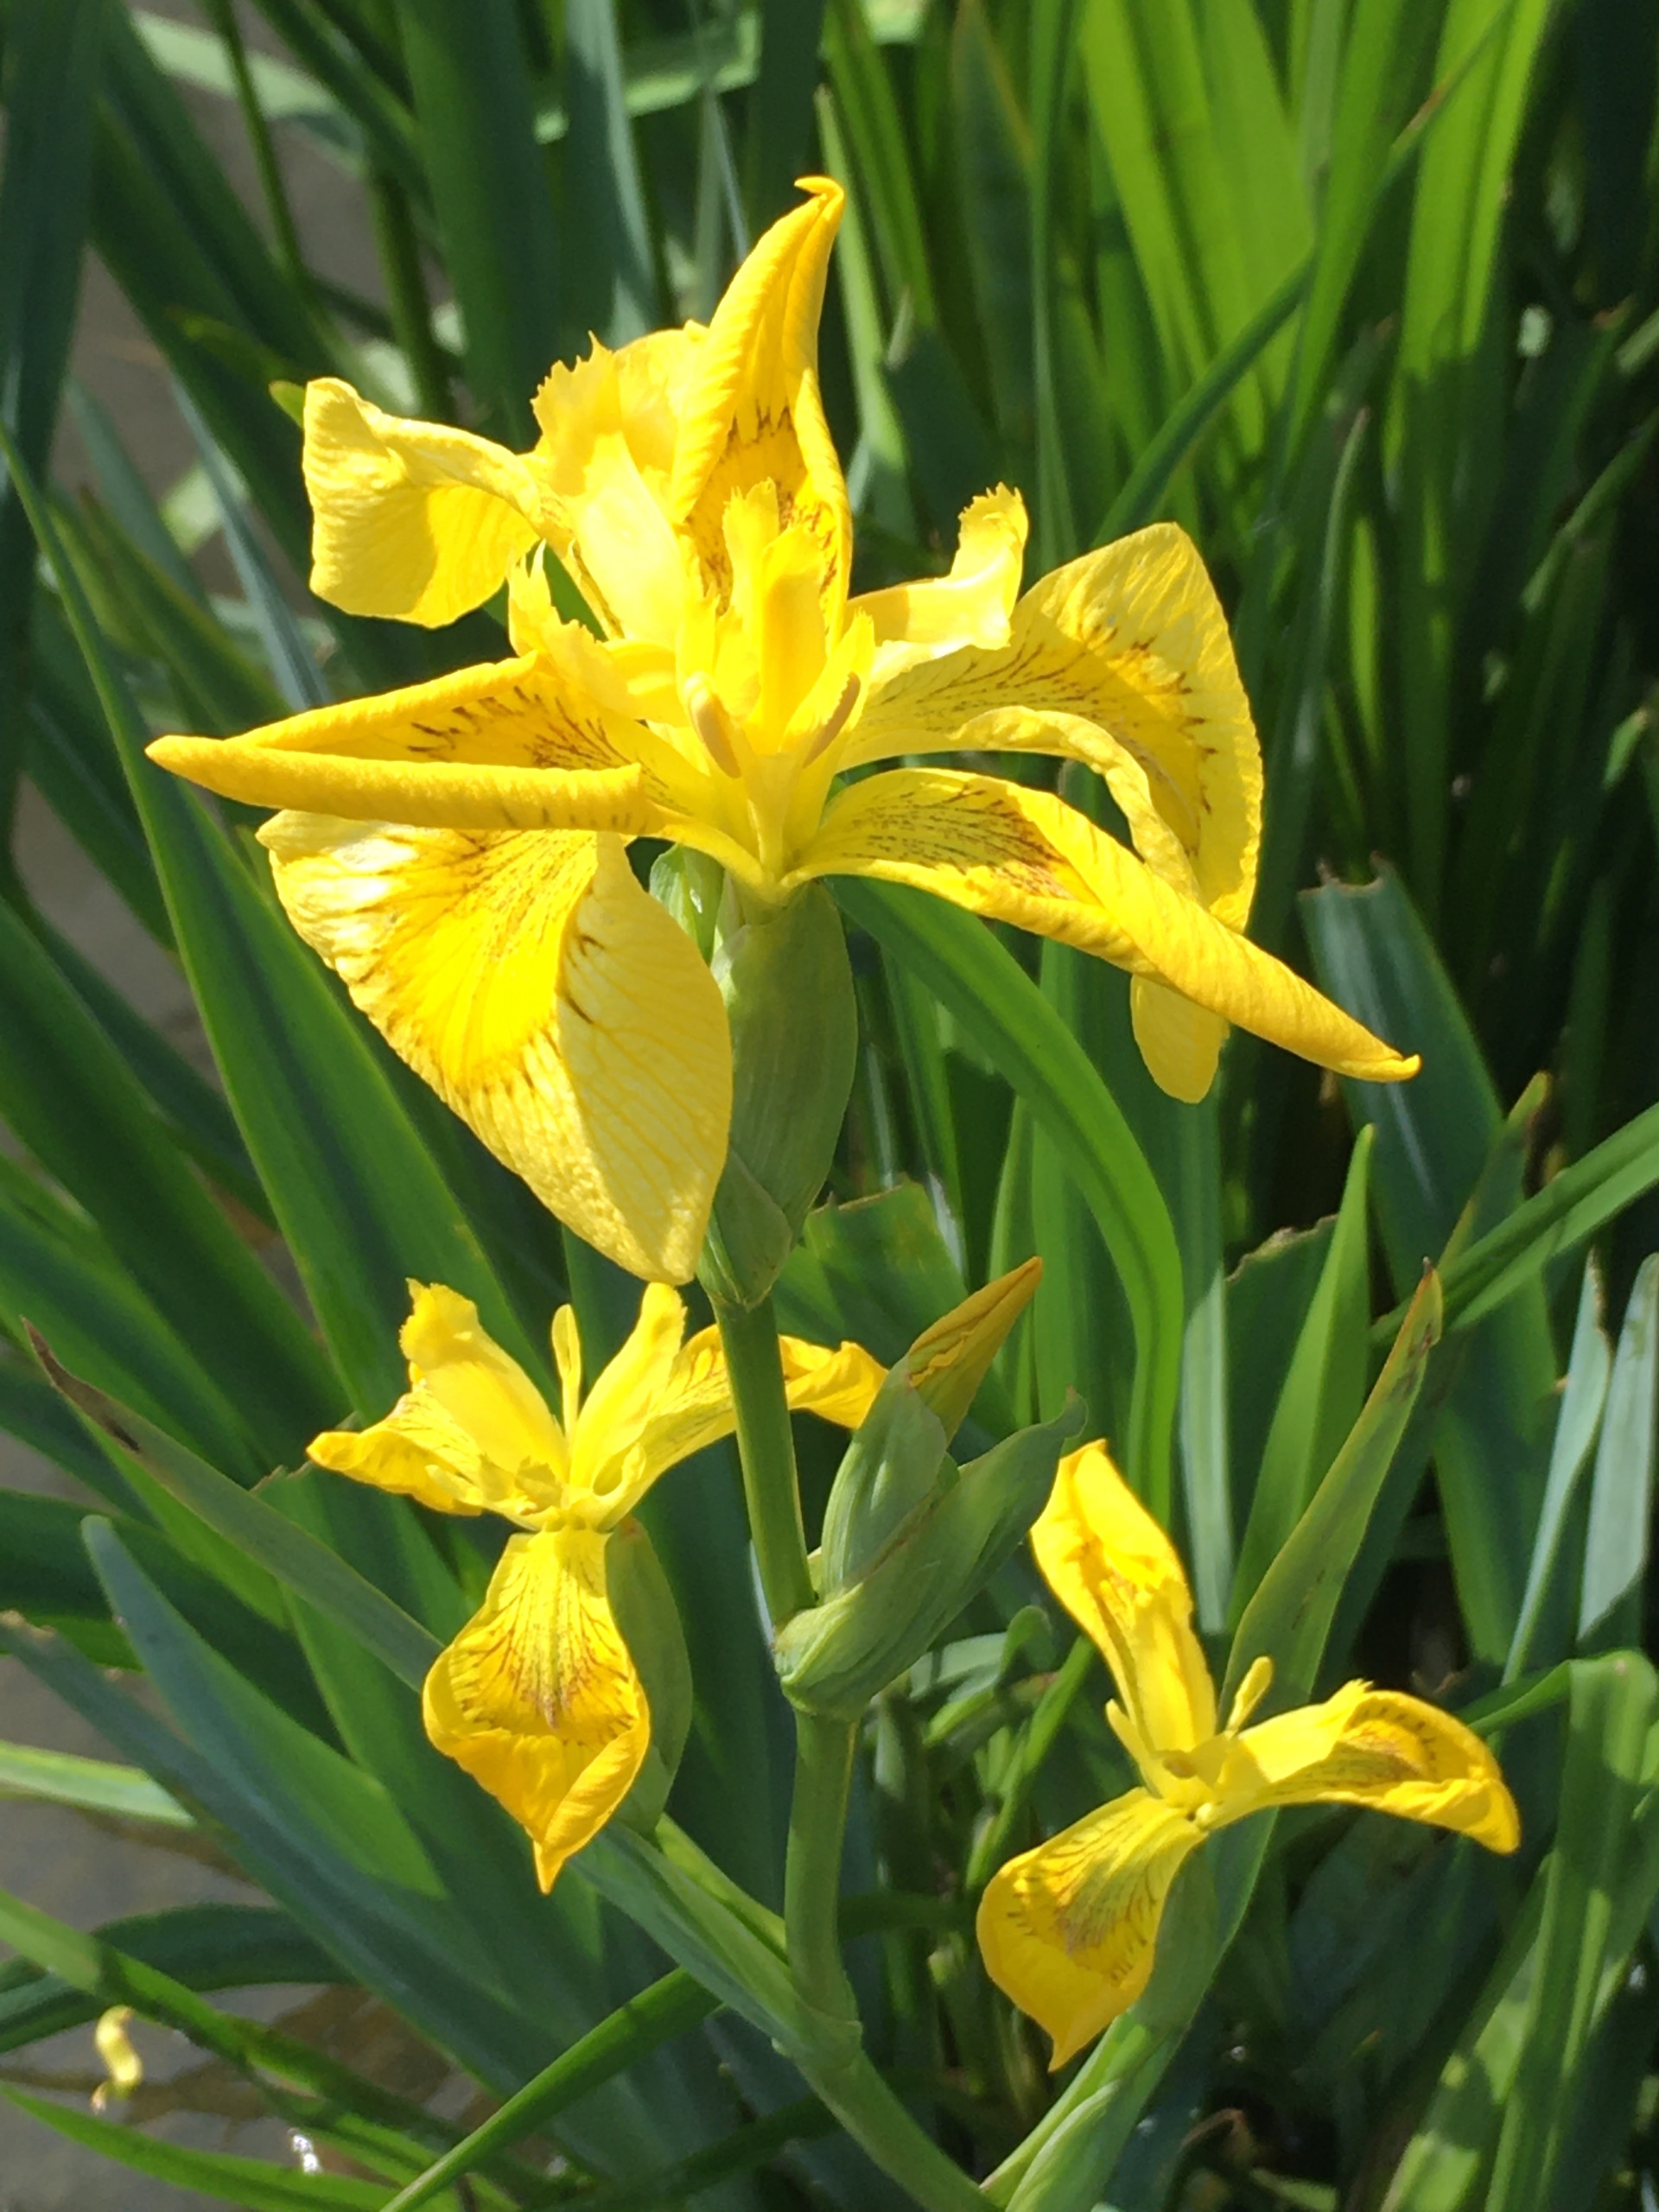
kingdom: Plantae
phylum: Tracheophyta
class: Liliopsida
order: Asparagales
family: Iridaceae
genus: Iris
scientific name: Iris pseudacorus
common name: Gul iris
